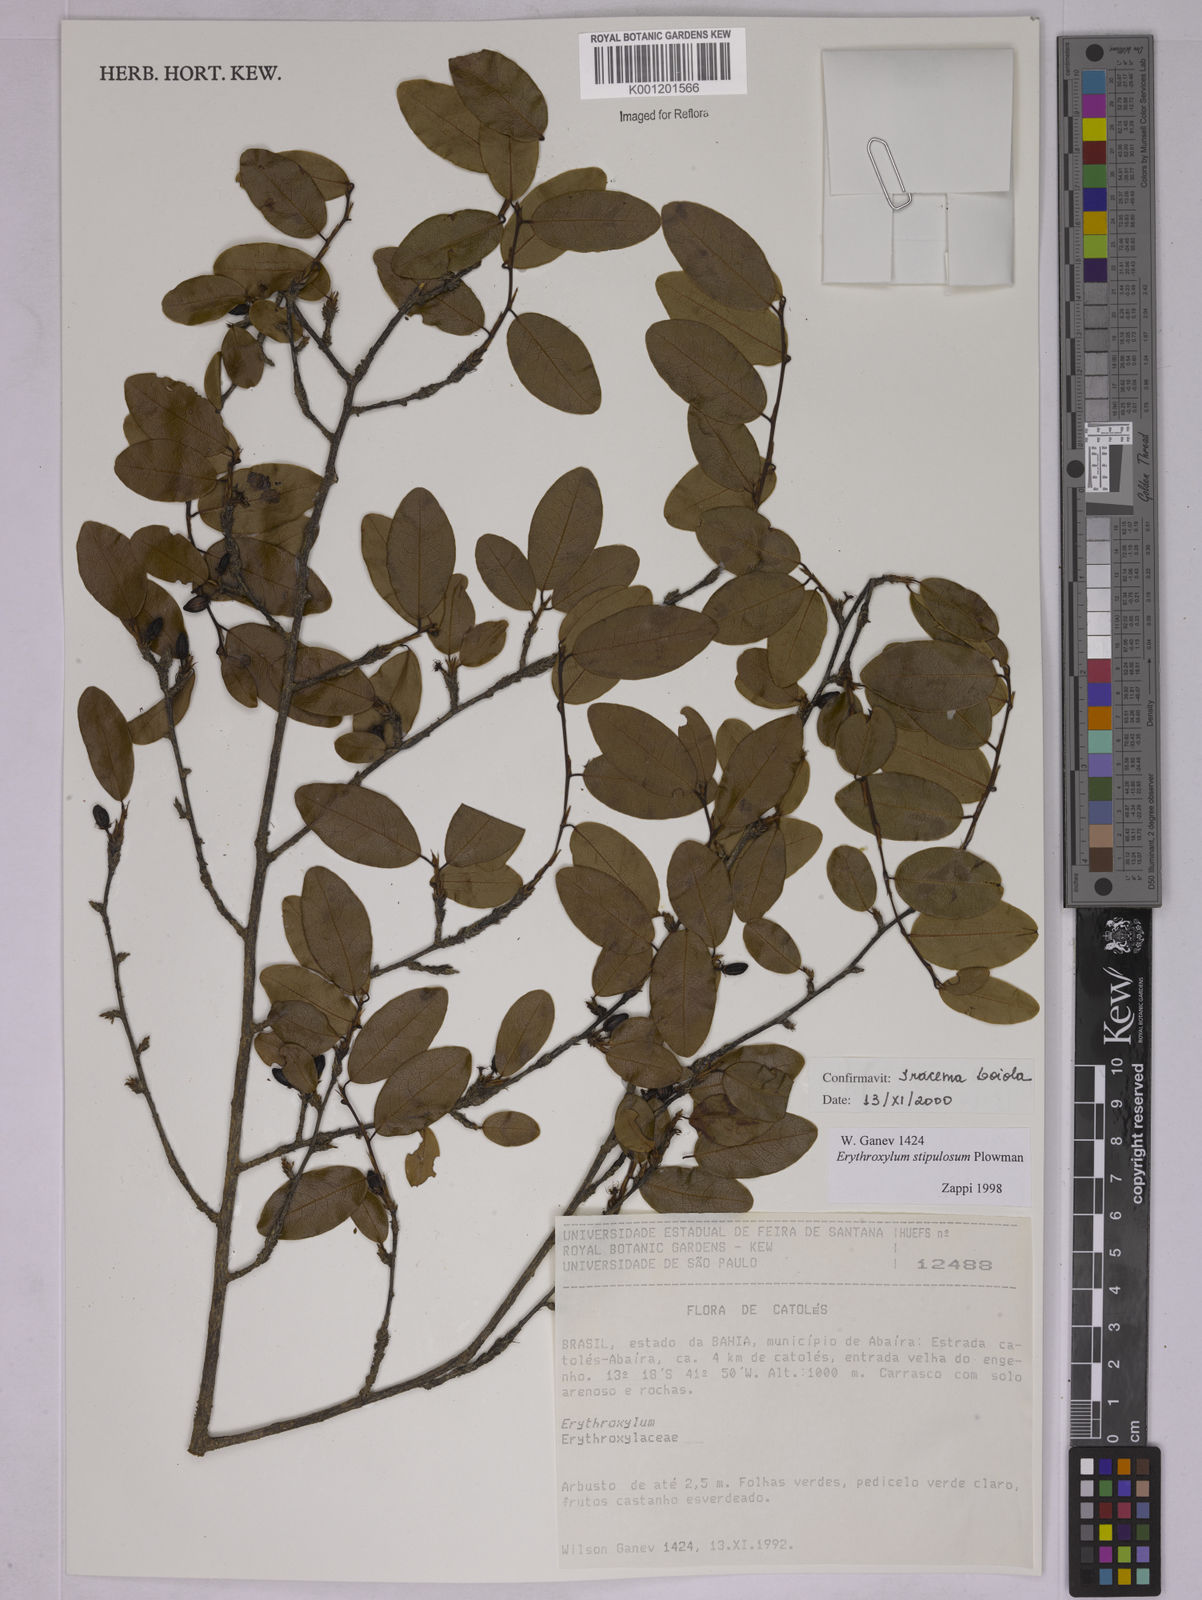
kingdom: Plantae
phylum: Tracheophyta
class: Magnoliopsida
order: Malpighiales
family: Erythroxylaceae
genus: Erythroxylum
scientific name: Erythroxylum stipulosum
